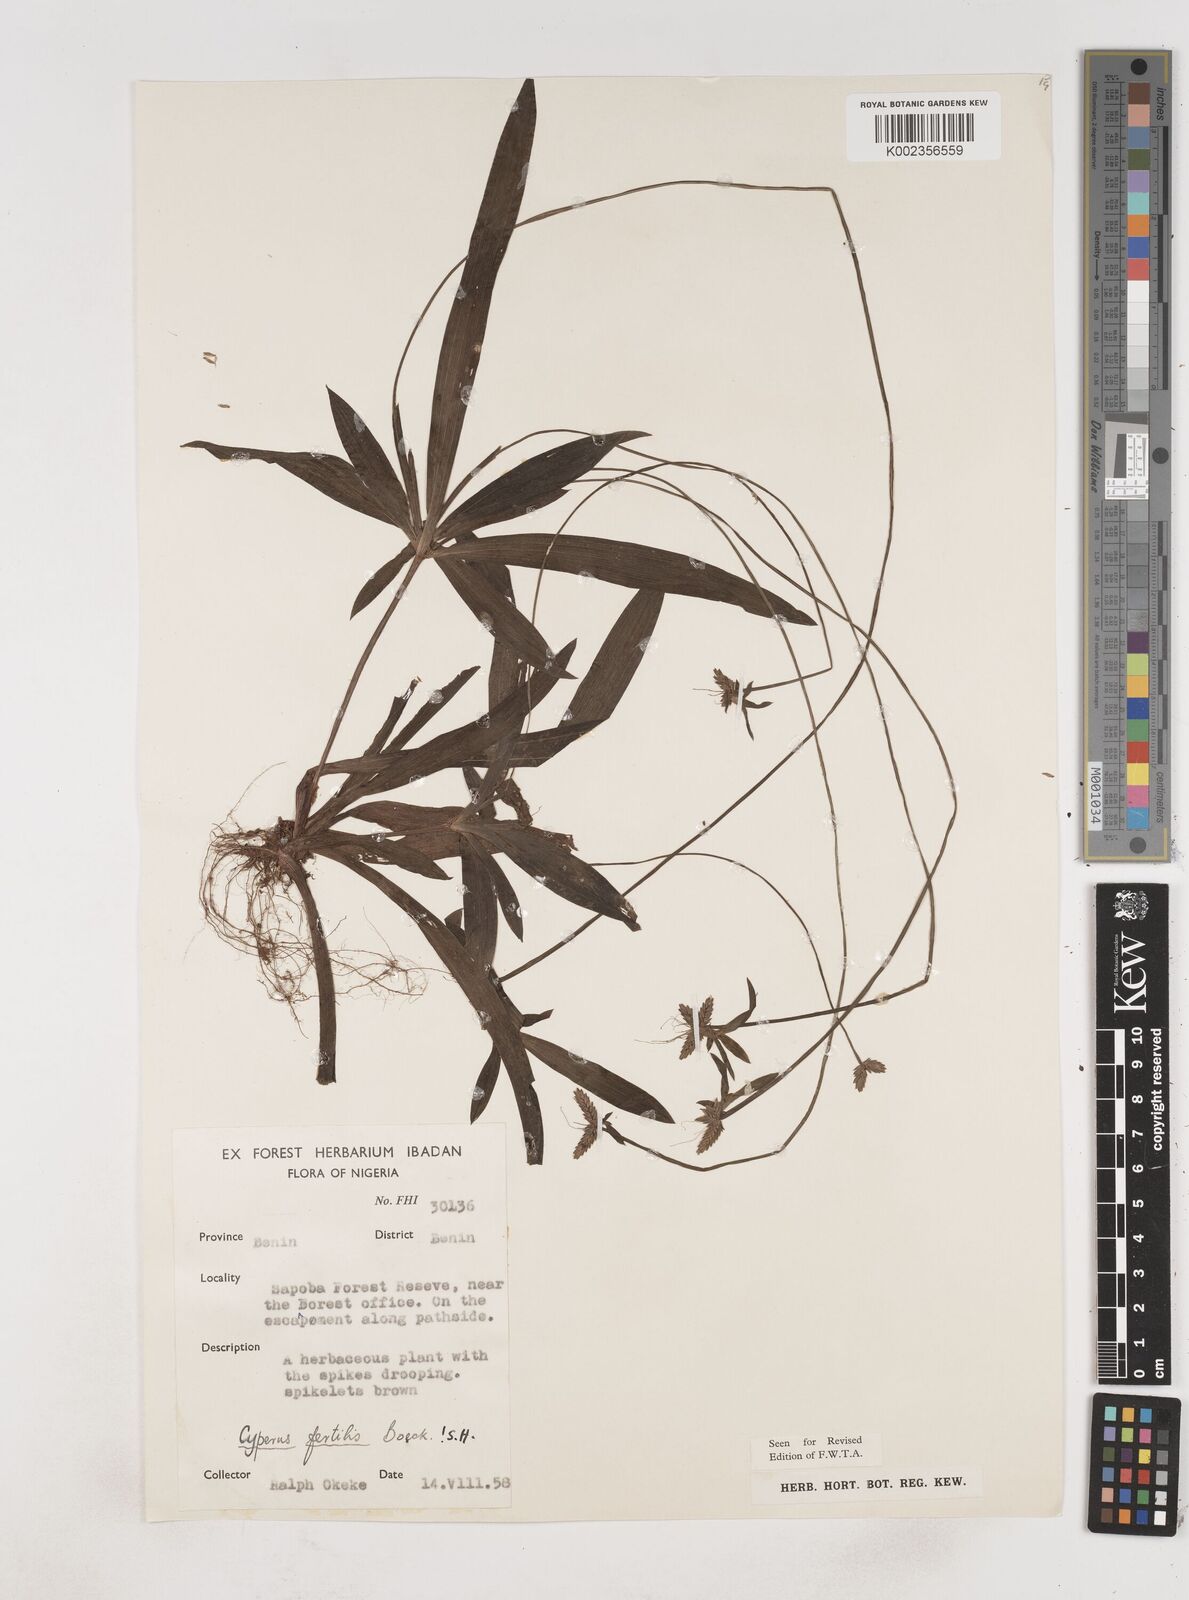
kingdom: Plantae
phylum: Tracheophyta
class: Liliopsida
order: Poales
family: Cyperaceae
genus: Cyperus
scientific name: Cyperus fertilis
